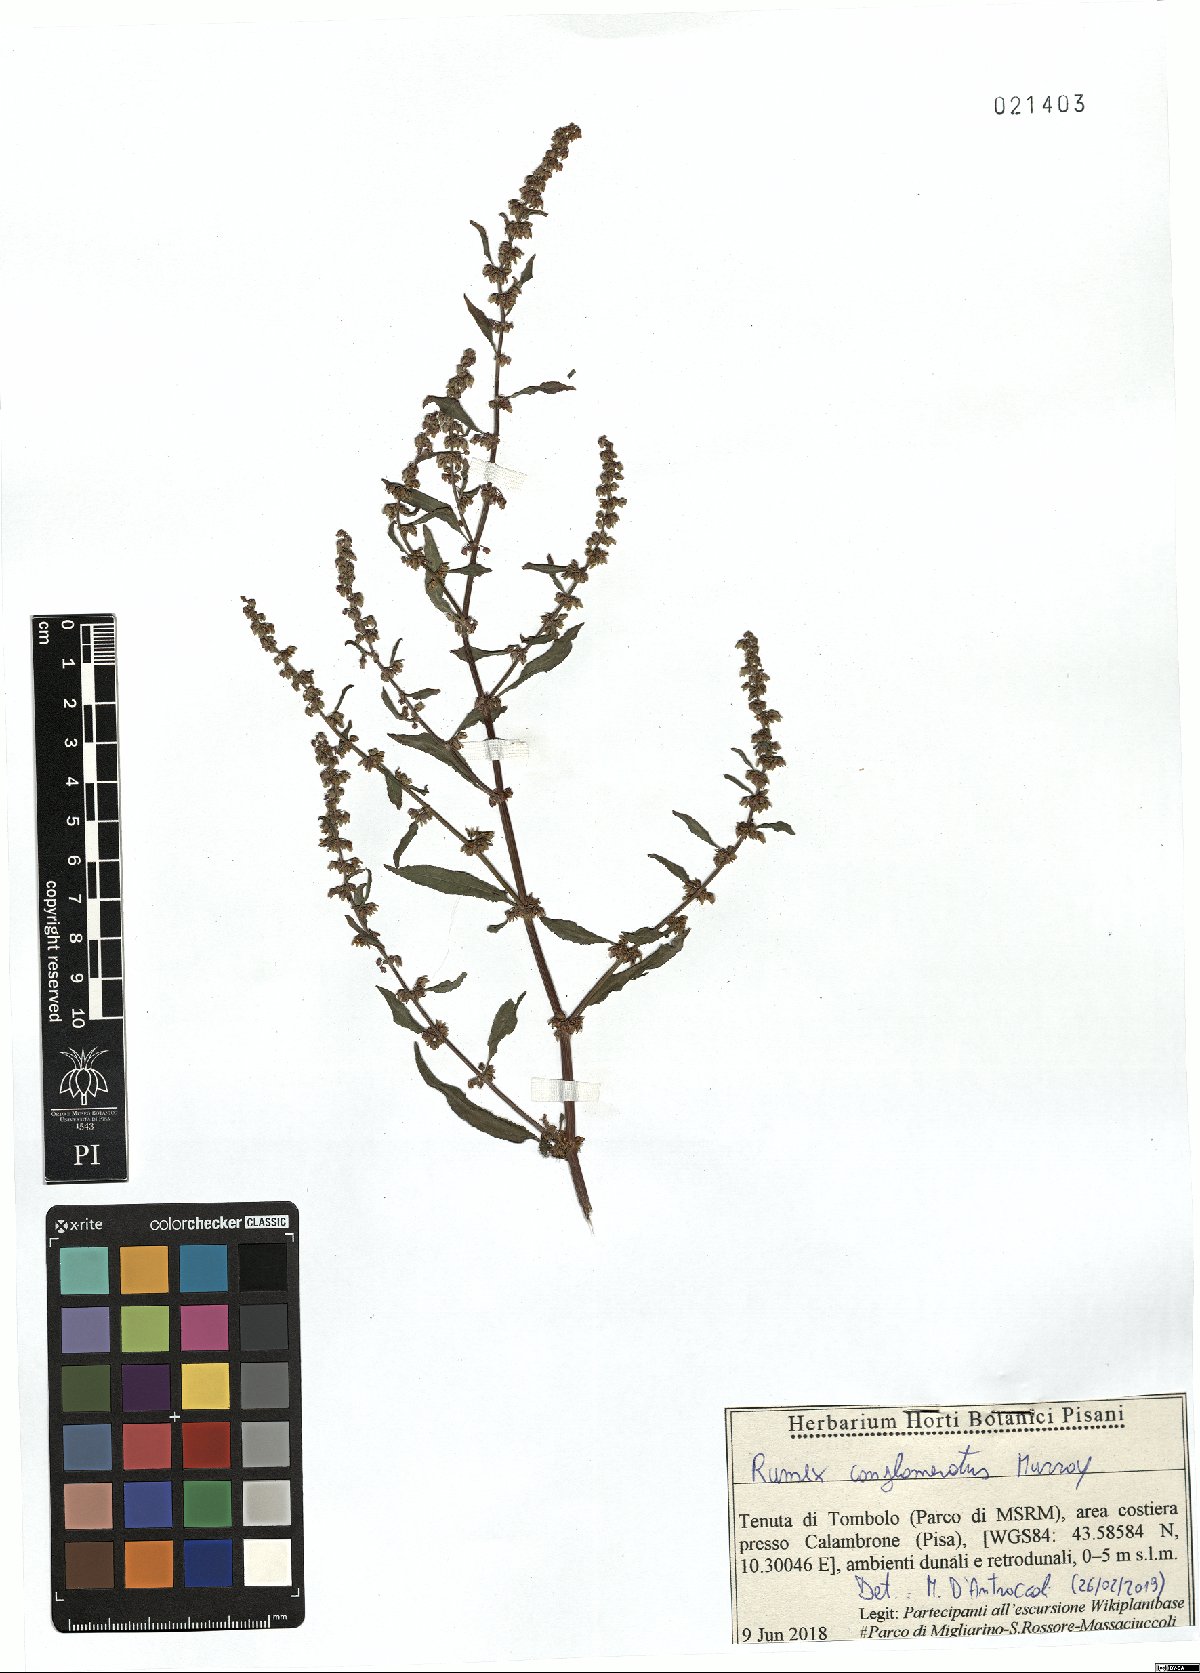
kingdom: Plantae
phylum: Tracheophyta
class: Magnoliopsida
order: Caryophyllales
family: Polygonaceae
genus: Rumex
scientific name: Rumex conglomeratus
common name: Clustered dock
